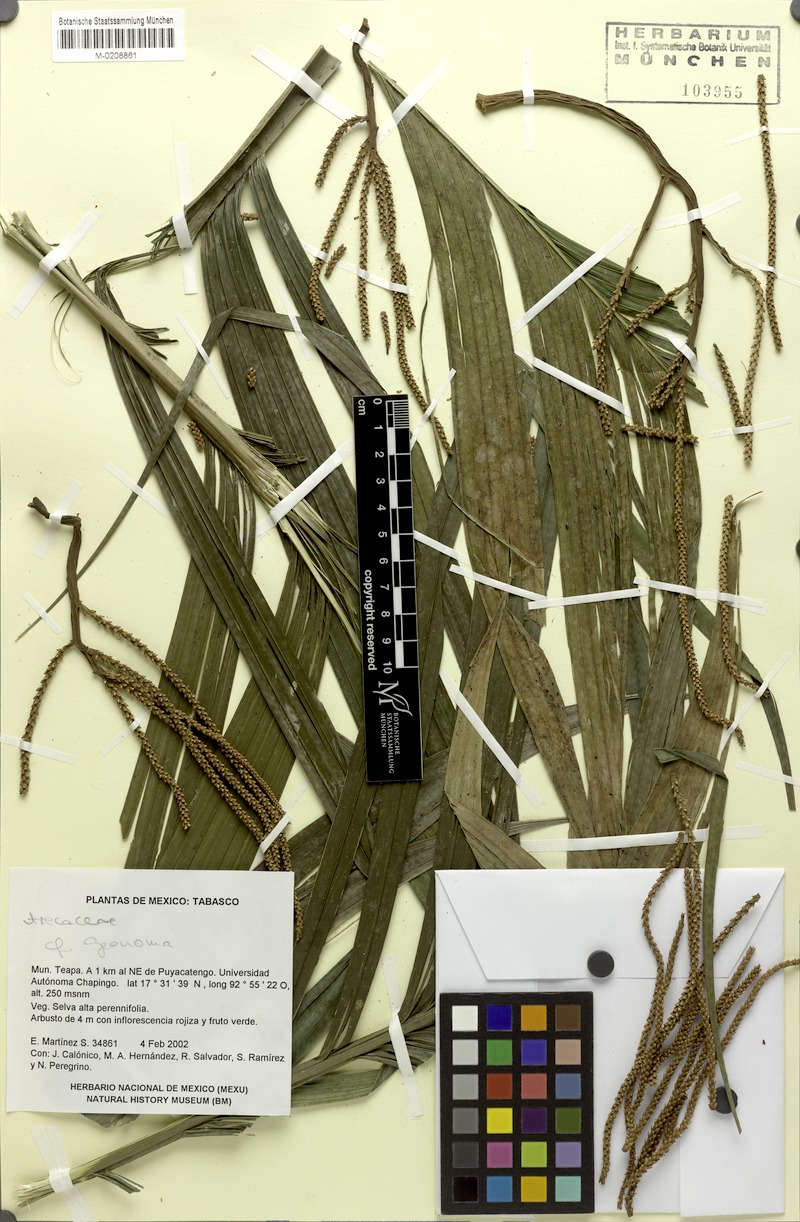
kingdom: Plantae
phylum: Tracheophyta
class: Liliopsida
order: Arecales
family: Arecaceae
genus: Geonoma
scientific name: Geonoma
